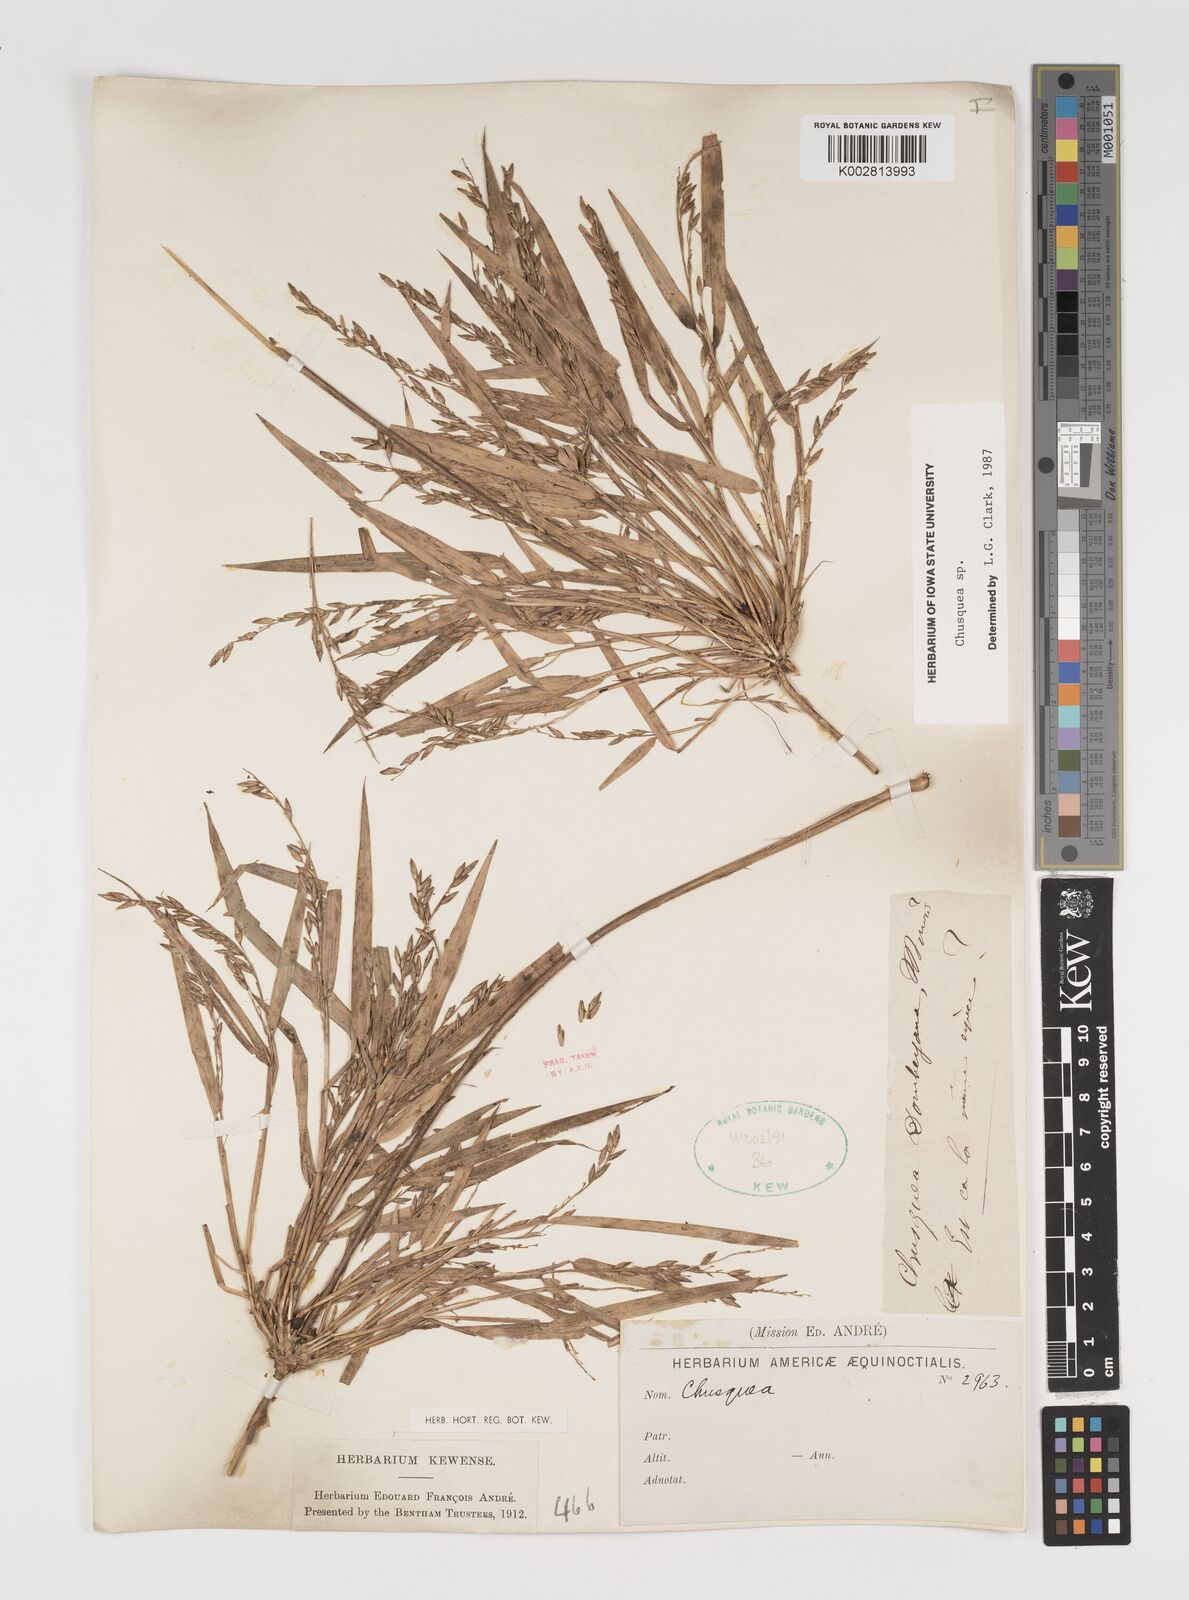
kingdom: Plantae
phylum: Tracheophyta
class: Liliopsida
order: Poales
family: Poaceae
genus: Chusquea
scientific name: Chusquea
